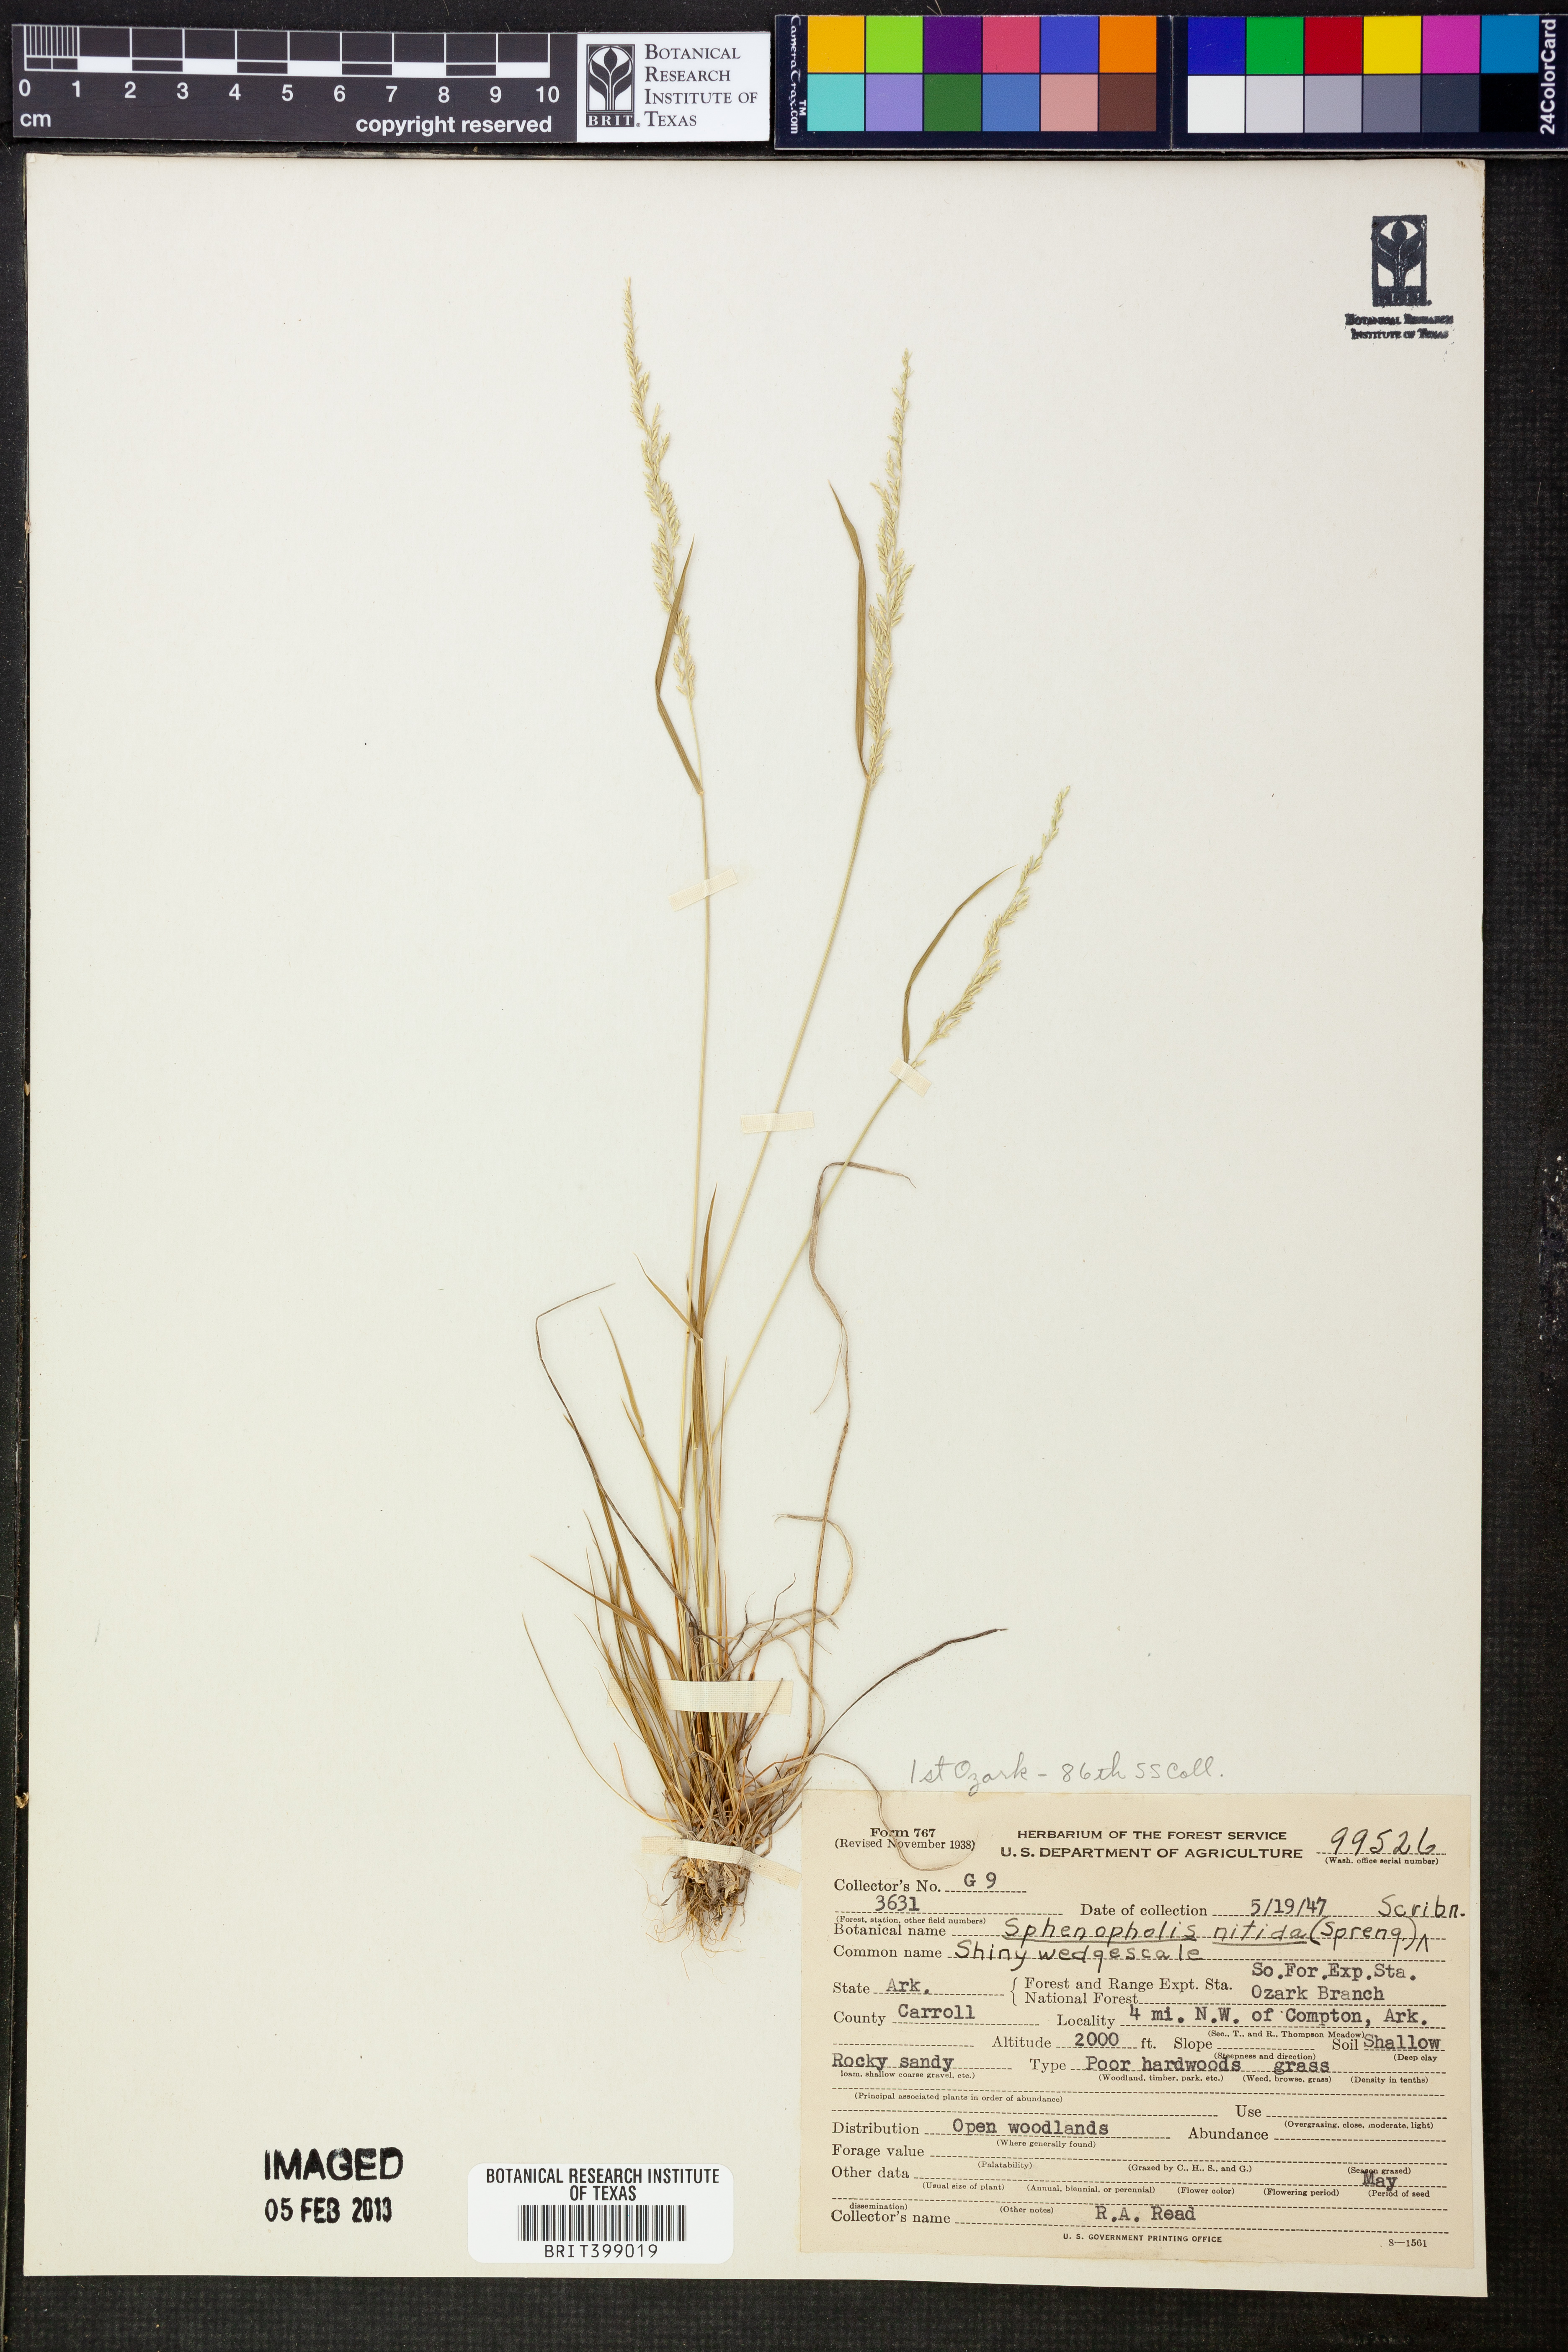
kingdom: Plantae
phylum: Tracheophyta
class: Liliopsida
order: Poales
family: Poaceae
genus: Sphenopholis
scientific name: Sphenopholis nitida
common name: Shiny wedgegrass
